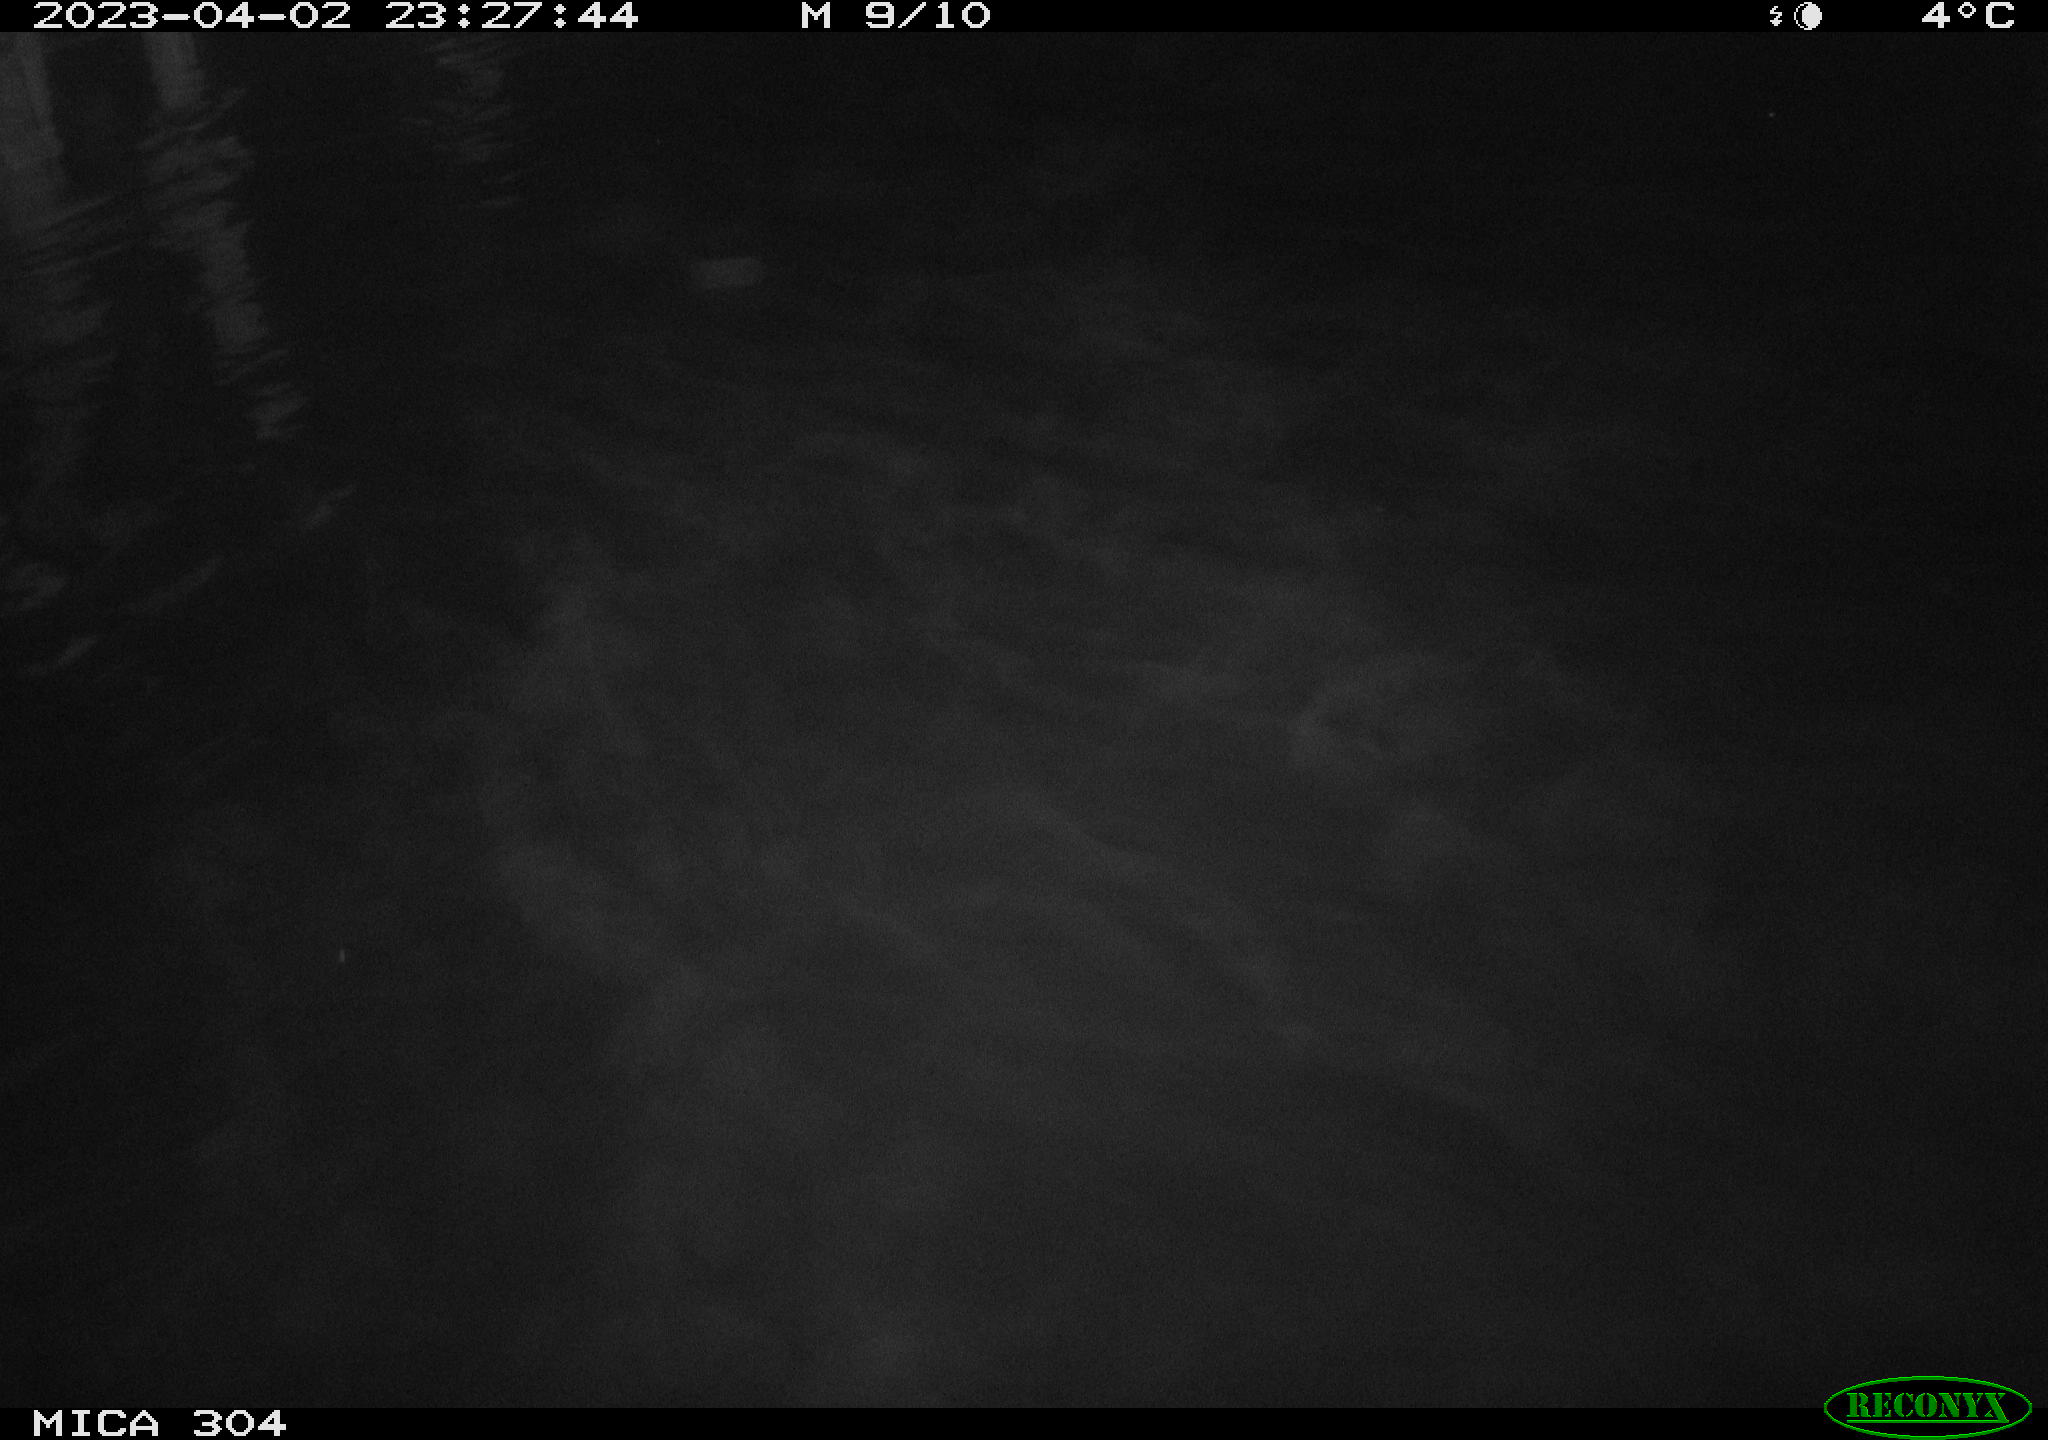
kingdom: Animalia
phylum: Chordata
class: Mammalia
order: Rodentia
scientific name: Rodentia
